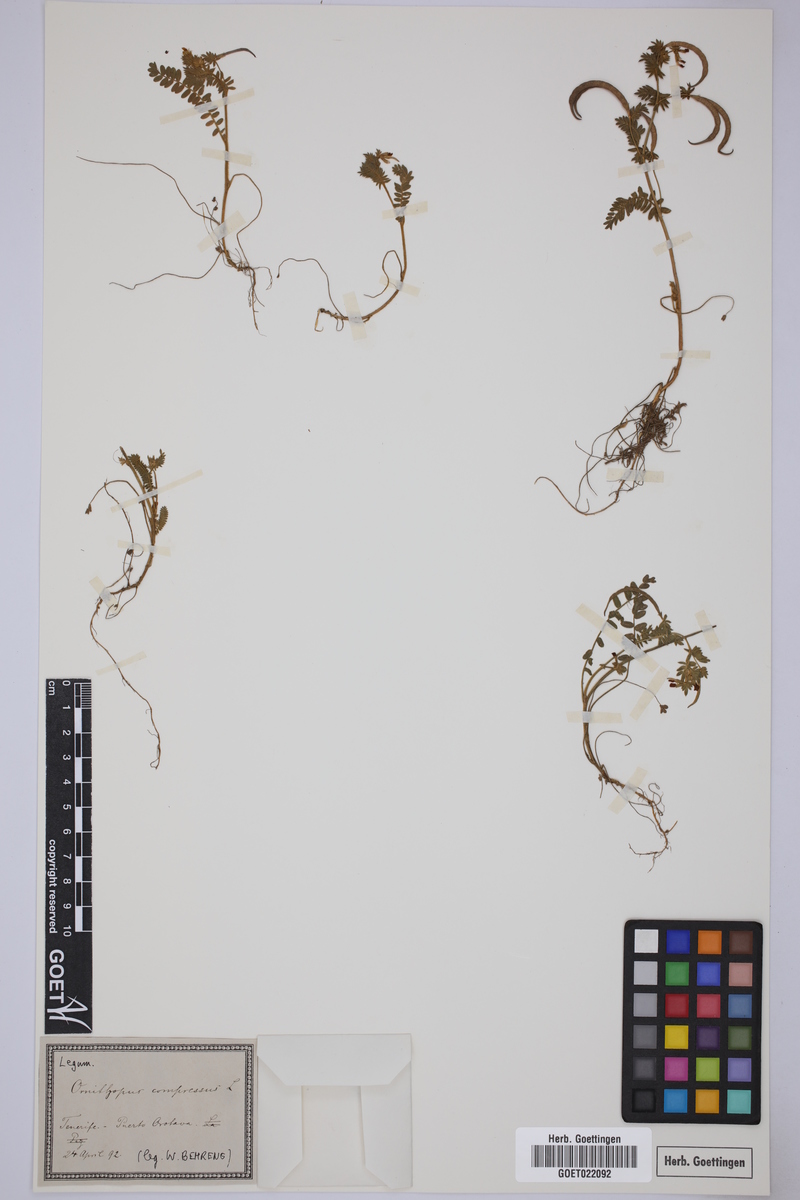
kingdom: Plantae
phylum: Tracheophyta
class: Magnoliopsida
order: Fabales
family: Fabaceae
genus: Ornithopus
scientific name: Ornithopus compressus
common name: Yellow serradella
